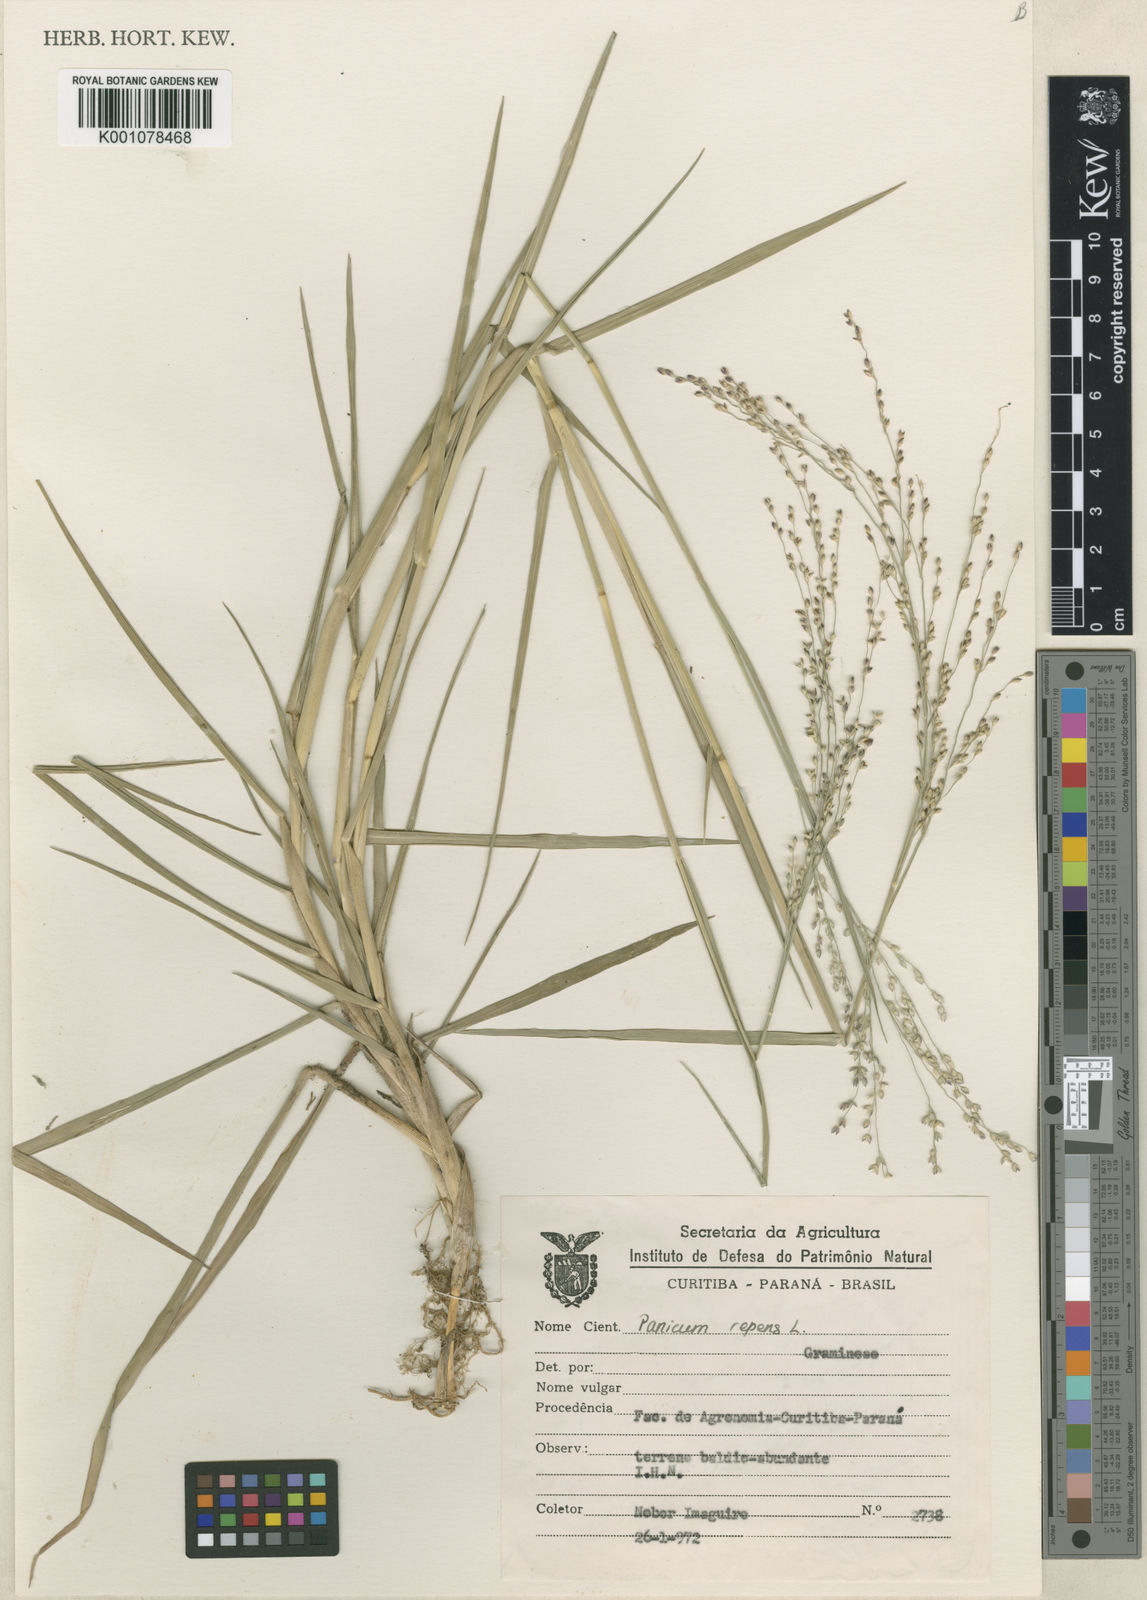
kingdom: Plantae
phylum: Tracheophyta
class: Liliopsida
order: Poales
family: Poaceae
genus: Panicum
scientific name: Panicum repens
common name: Torpedo grass
